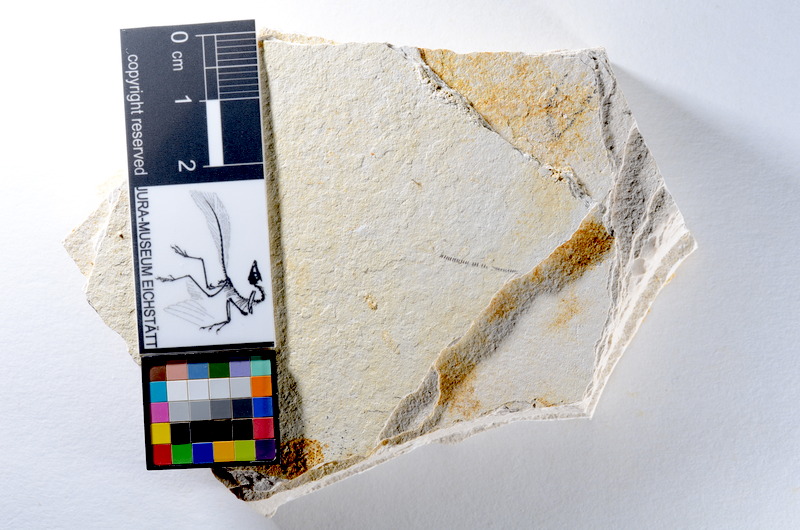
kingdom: Animalia
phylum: Chordata
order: Salmoniformes
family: Orthogonikleithridae
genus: Orthogonikleithrus
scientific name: Orthogonikleithrus hoelli
